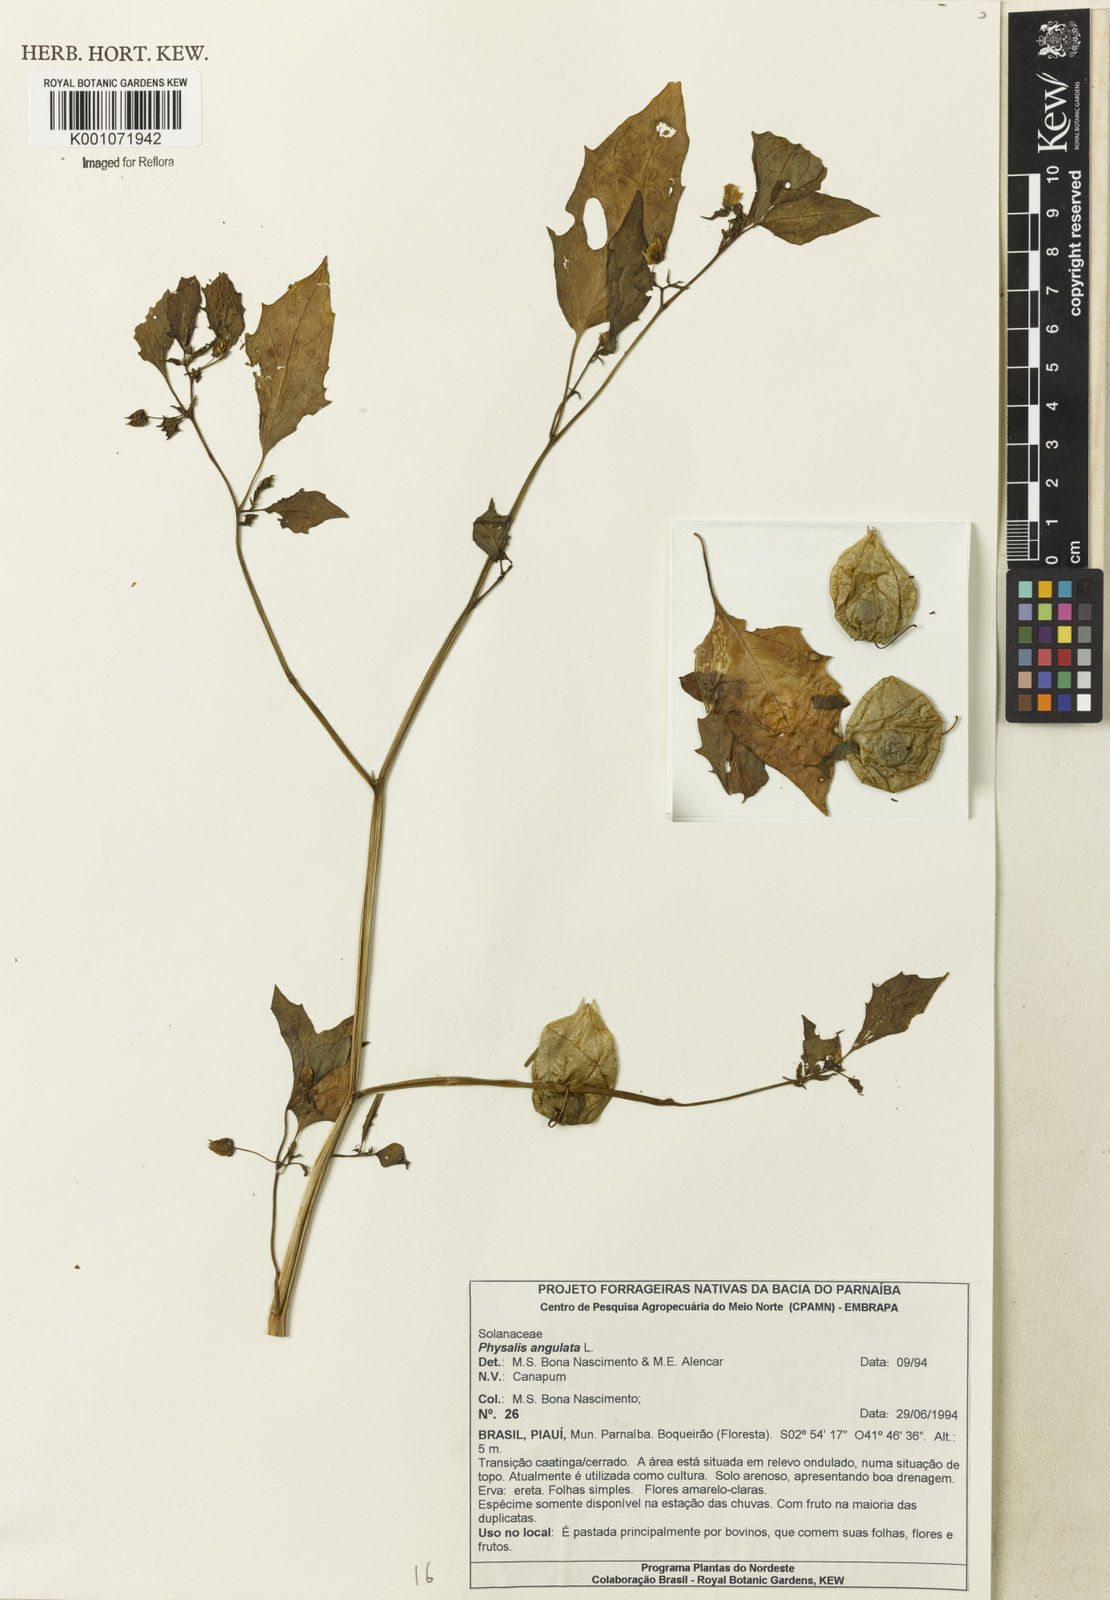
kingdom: Plantae
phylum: Tracheophyta
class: Magnoliopsida
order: Solanales
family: Solanaceae
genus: Physalis
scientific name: Physalis angulata
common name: Angular winter-cherry
